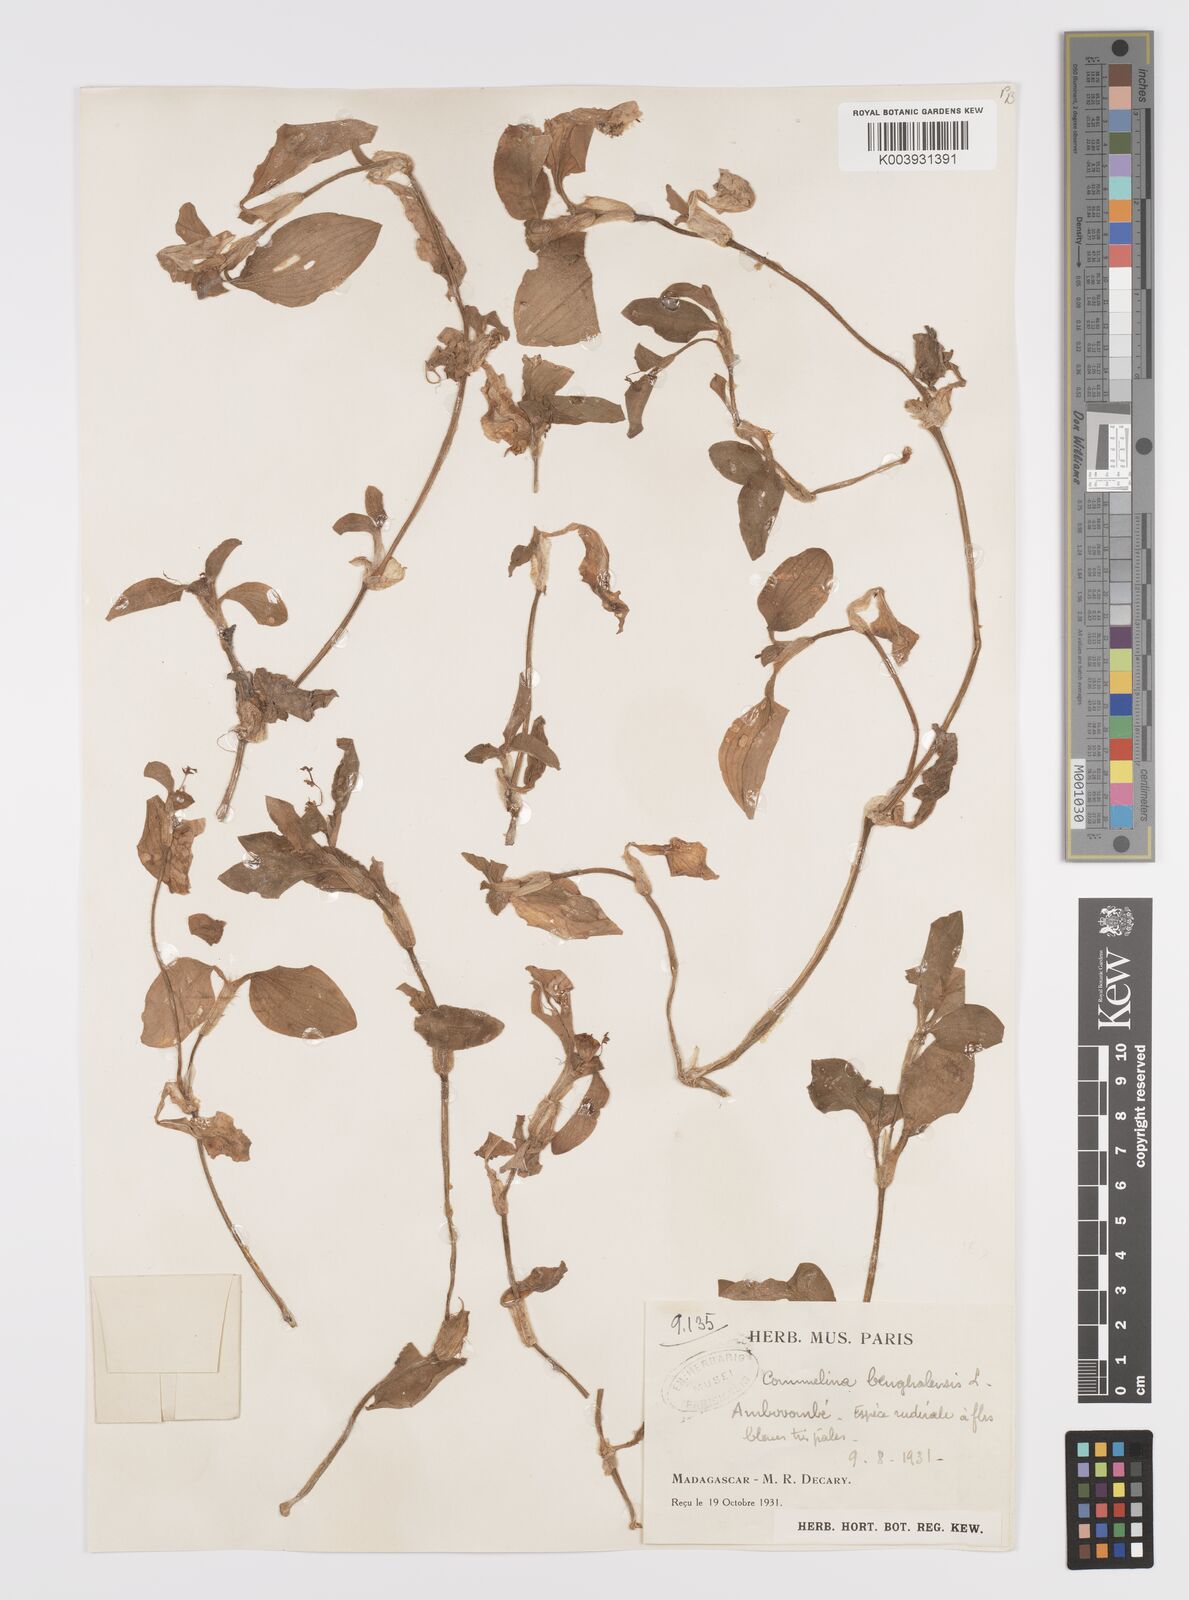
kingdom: Plantae
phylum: Tracheophyta
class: Liliopsida
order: Commelinales
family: Commelinaceae
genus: Commelina
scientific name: Commelina benghalensis
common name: Jio
